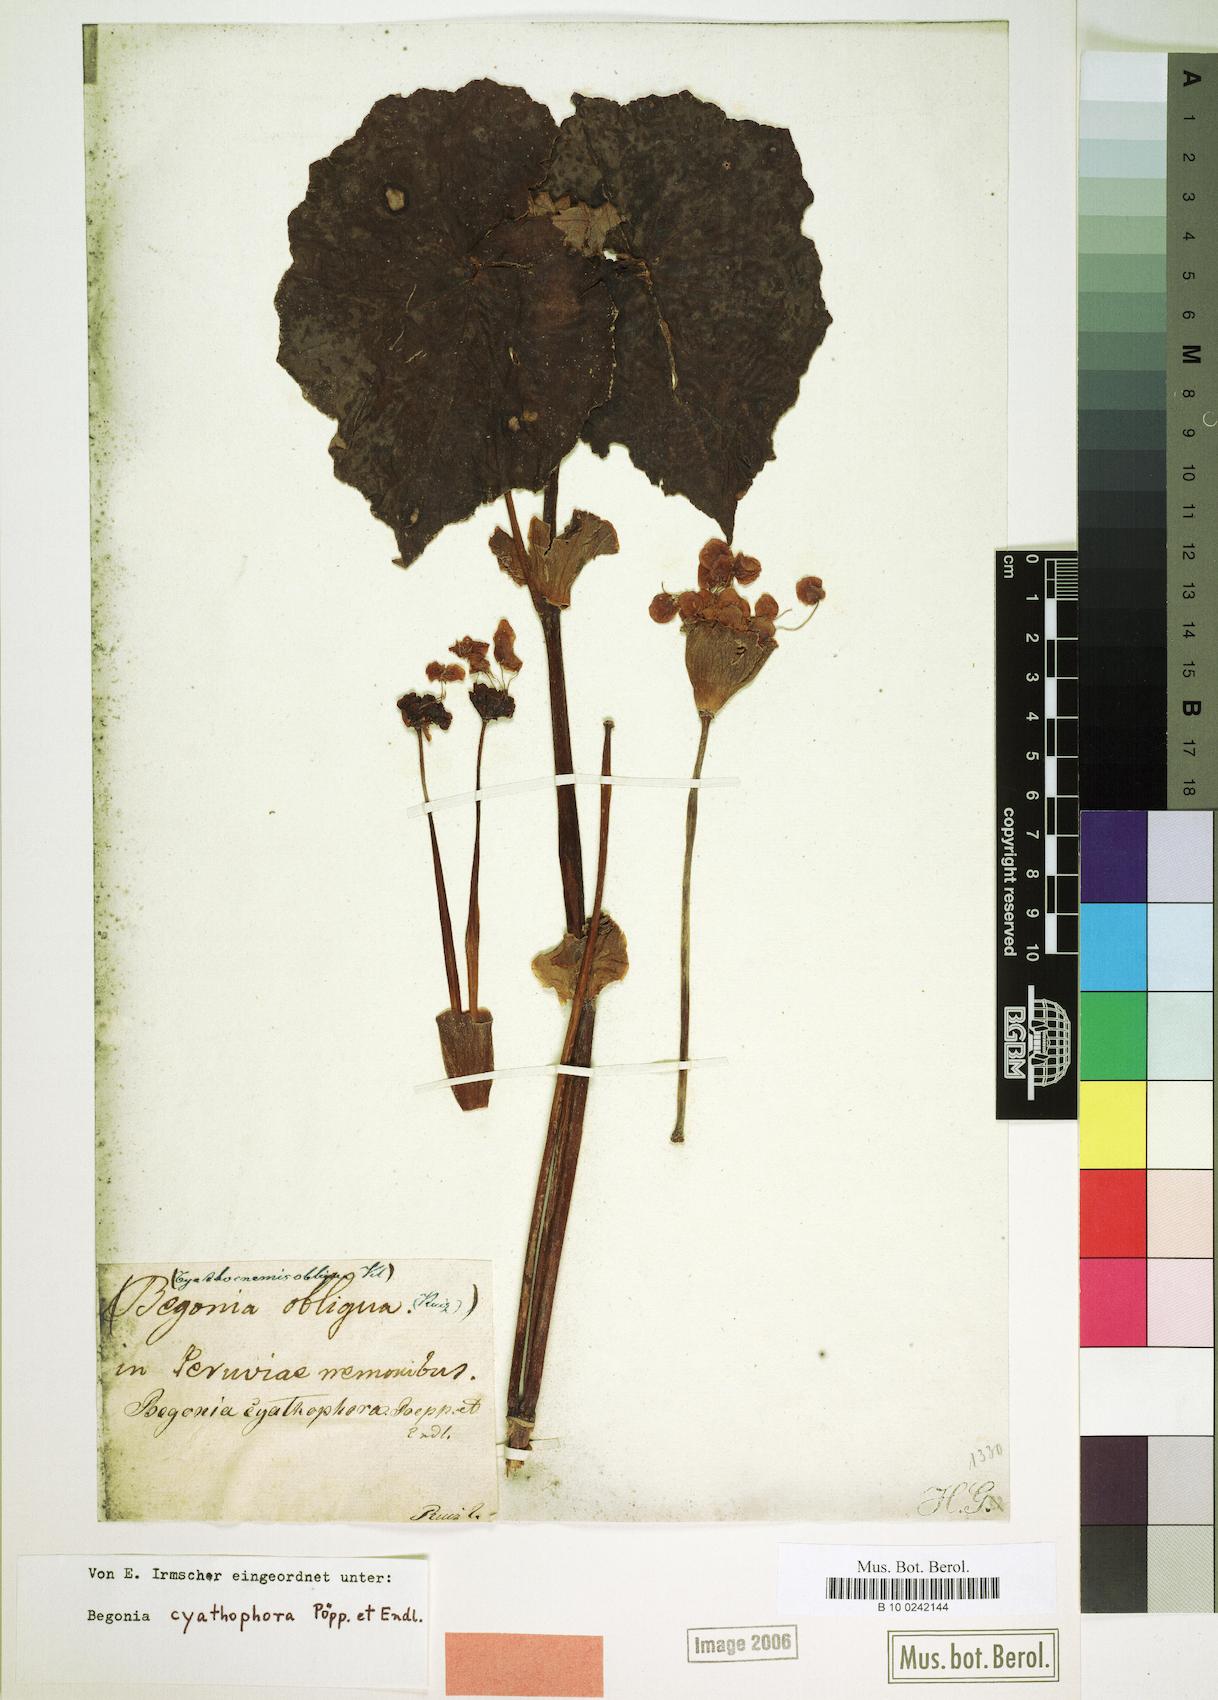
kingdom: Plantae
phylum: Tracheophyta
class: Magnoliopsida
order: Cucurbitales
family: Begoniaceae
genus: Begonia
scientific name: Begonia cyathophora
